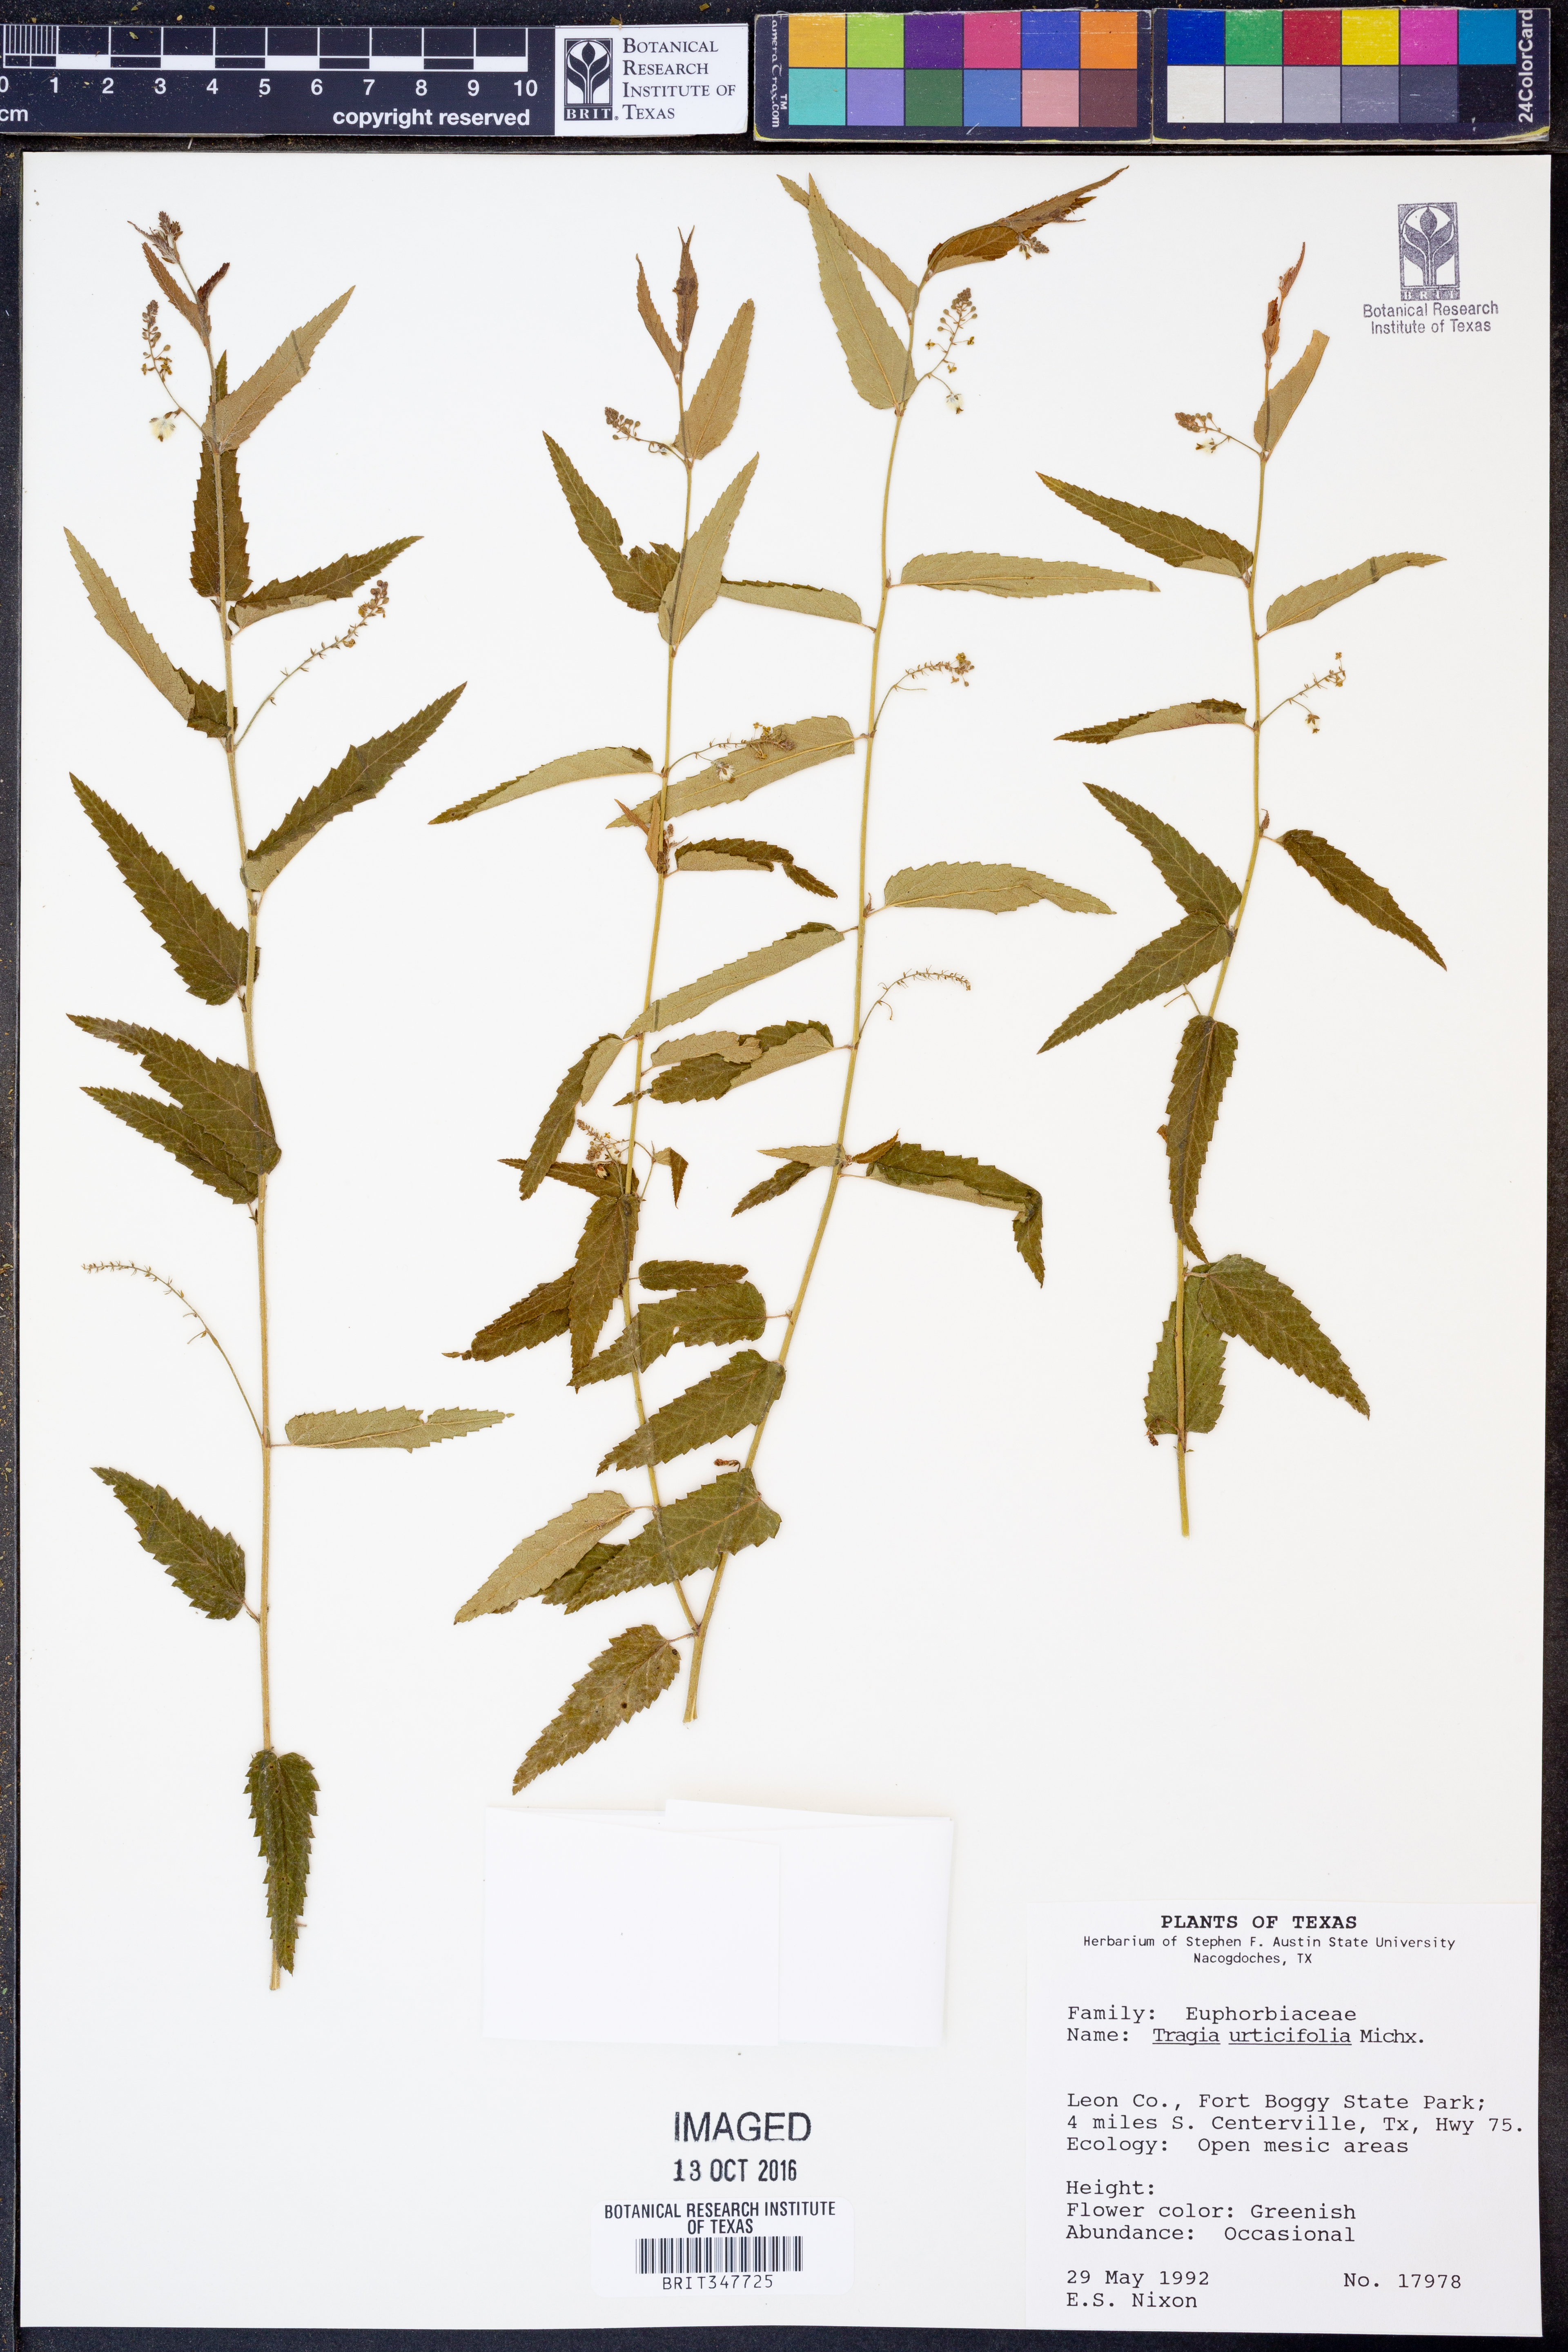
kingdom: Plantae
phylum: Tracheophyta
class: Magnoliopsida
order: Malpighiales
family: Euphorbiaceae
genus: Tragia
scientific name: Tragia urticifolia
